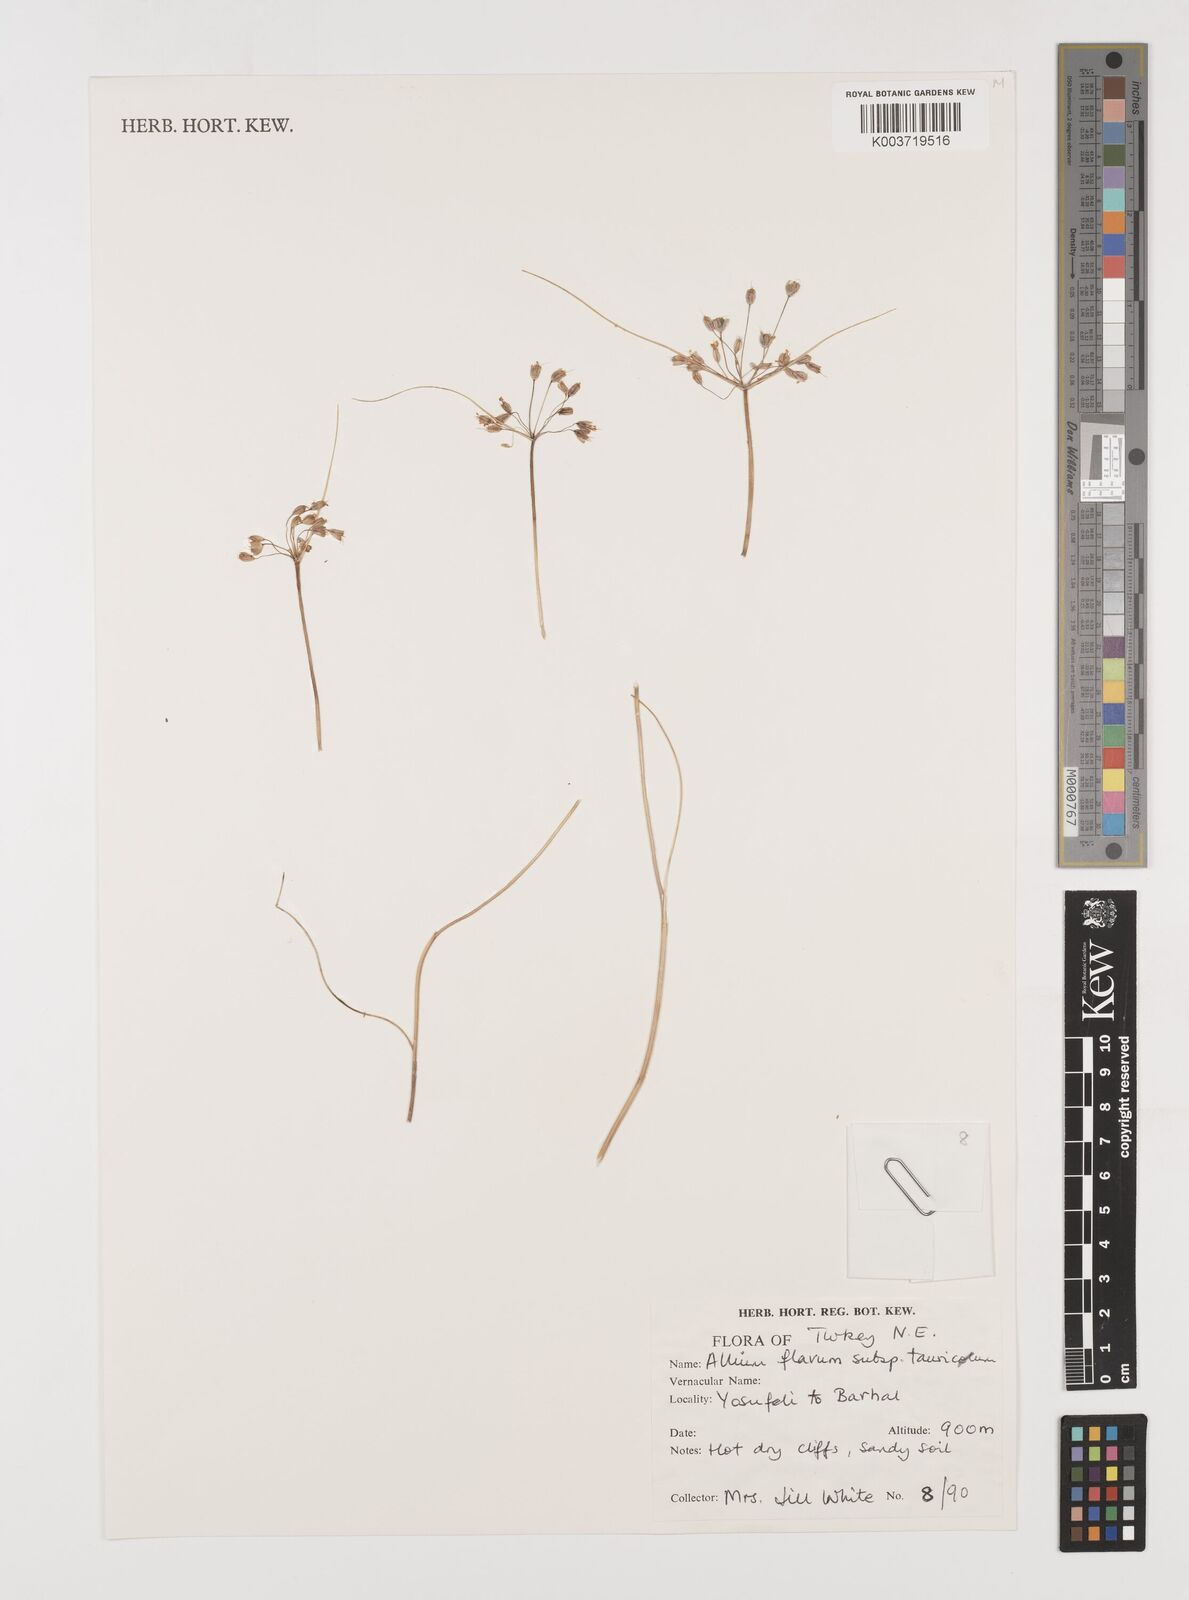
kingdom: Plantae
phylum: Tracheophyta
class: Liliopsida
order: Asparagales
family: Amaryllidaceae
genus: Allium
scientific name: Allium flavum
